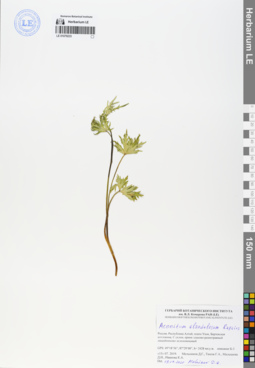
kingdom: Plantae
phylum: Tracheophyta
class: Magnoliopsida
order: Ranunculales
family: Ranunculaceae
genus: Aconitum
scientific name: Aconitum glandulosum
